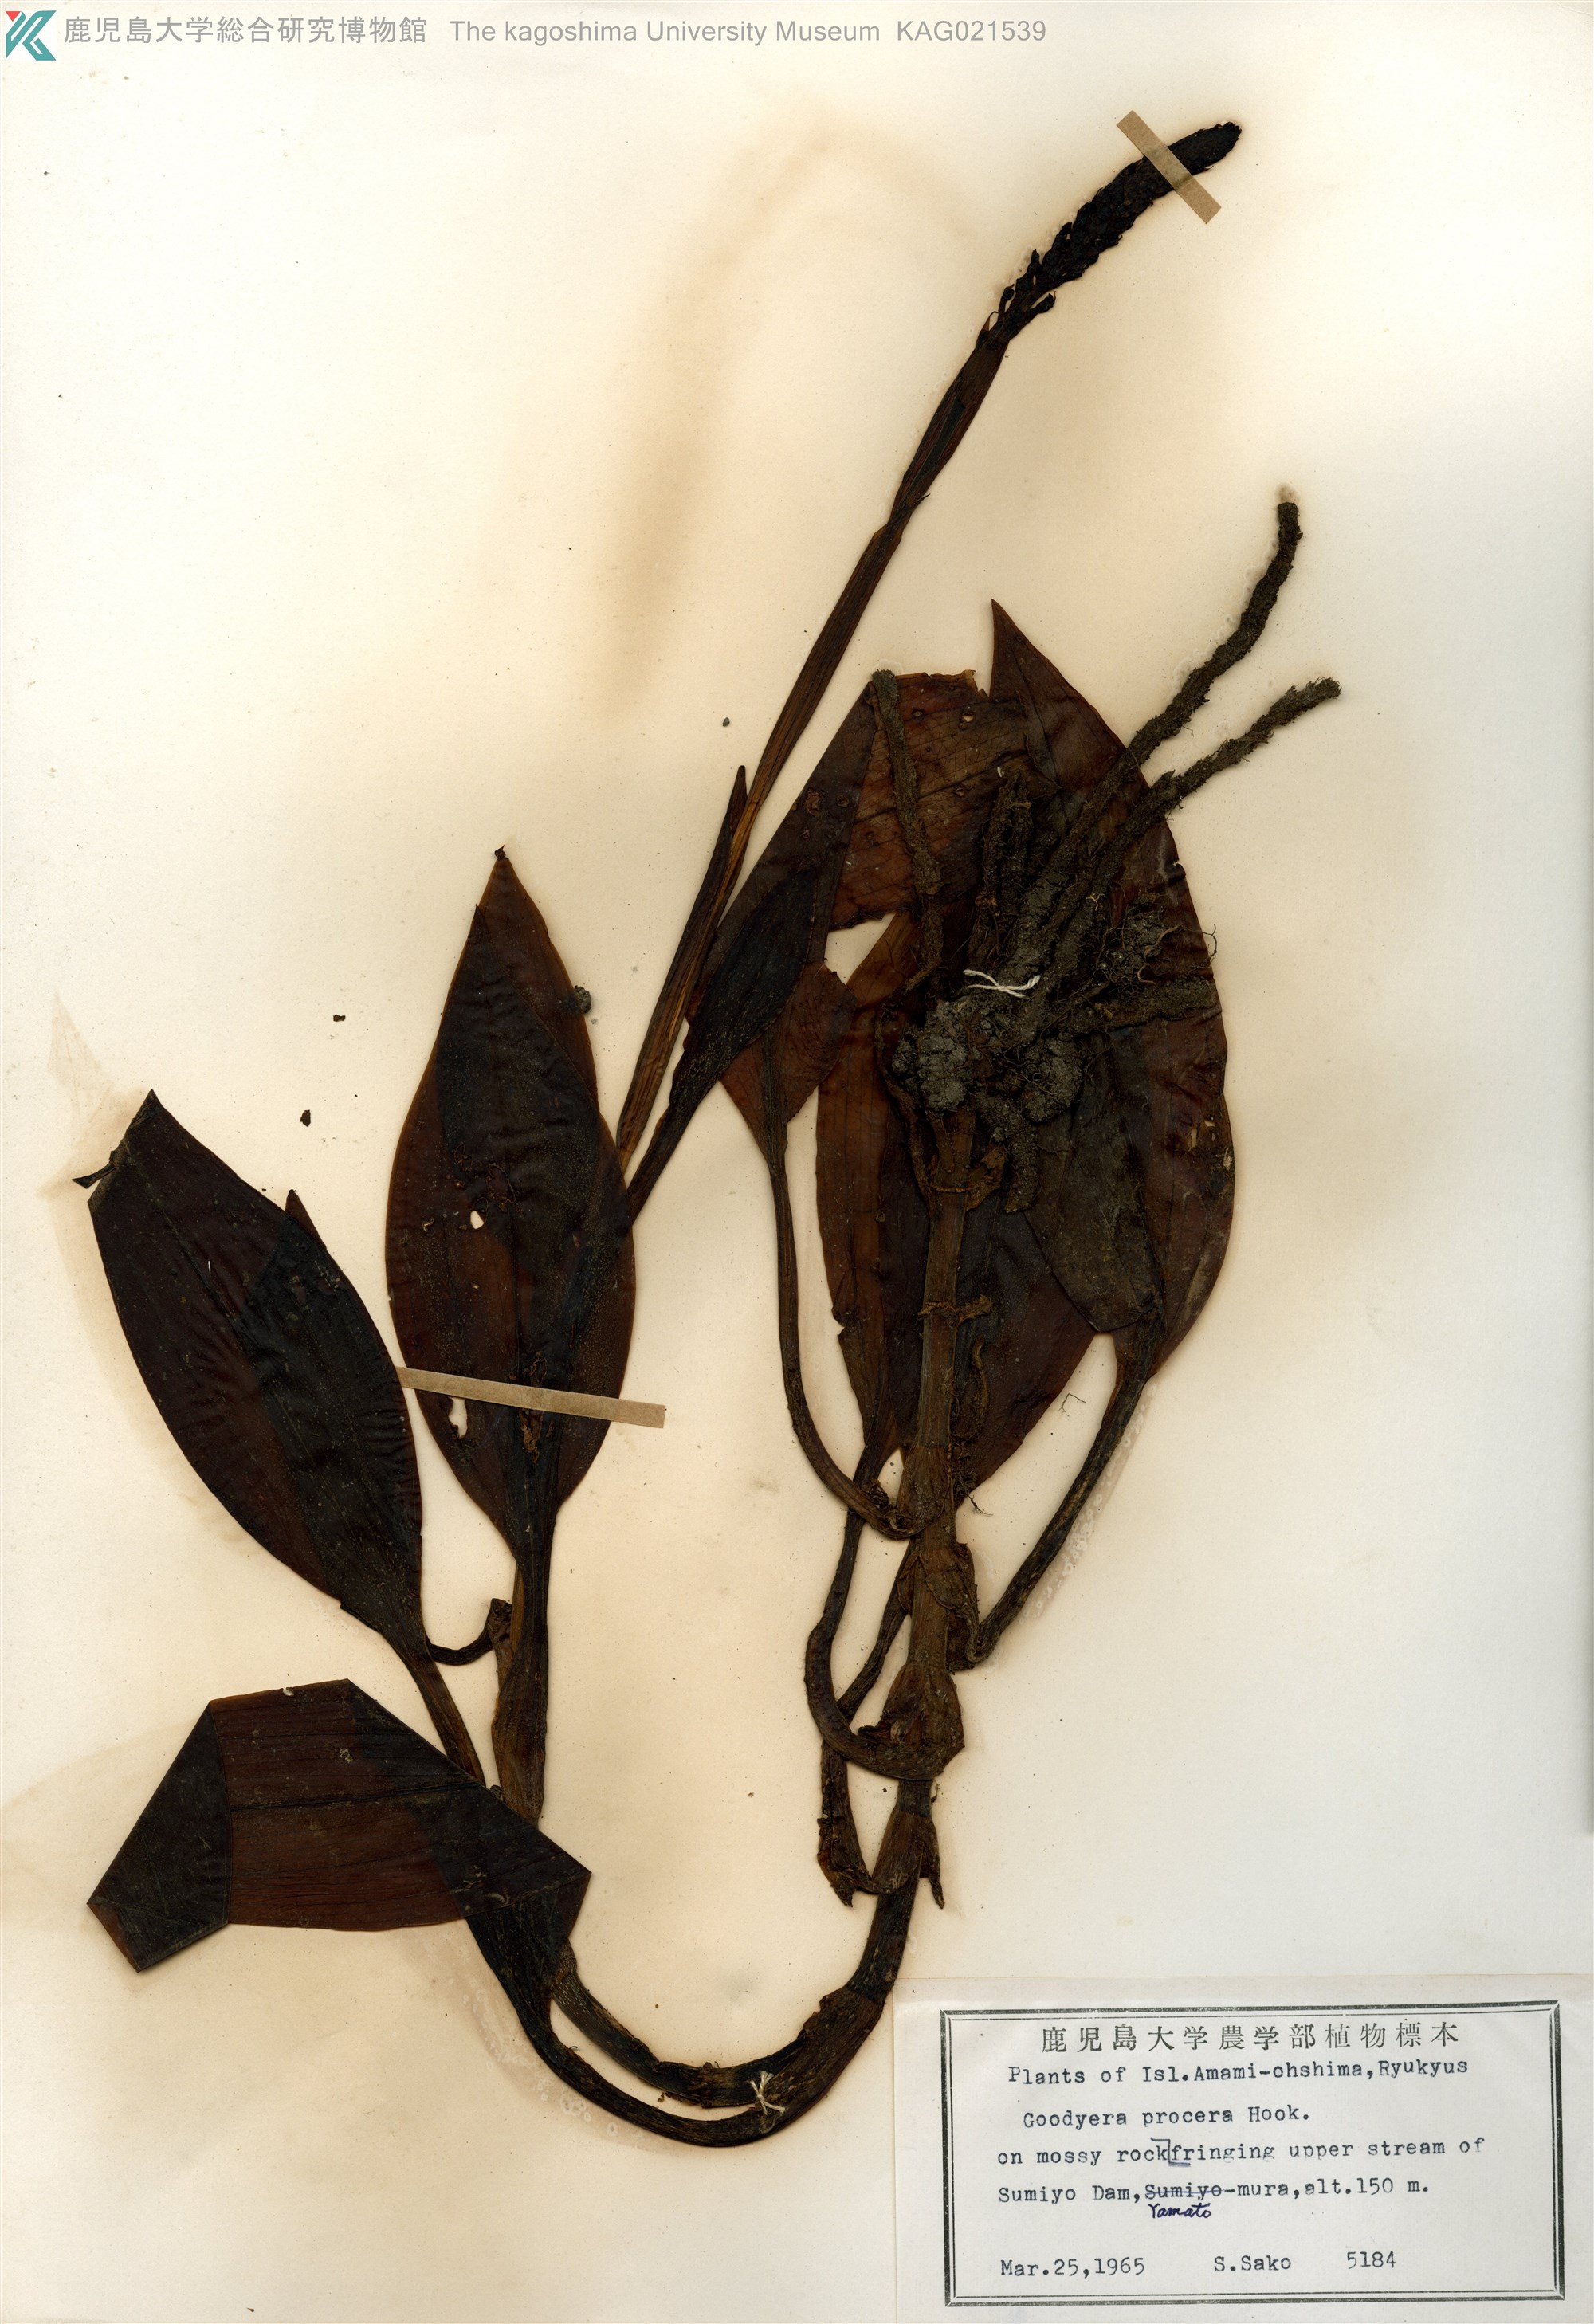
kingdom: Plantae
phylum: Tracheophyta
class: Liliopsida
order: Asparagales
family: Orchidaceae
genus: Goodyera
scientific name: Goodyera procera
